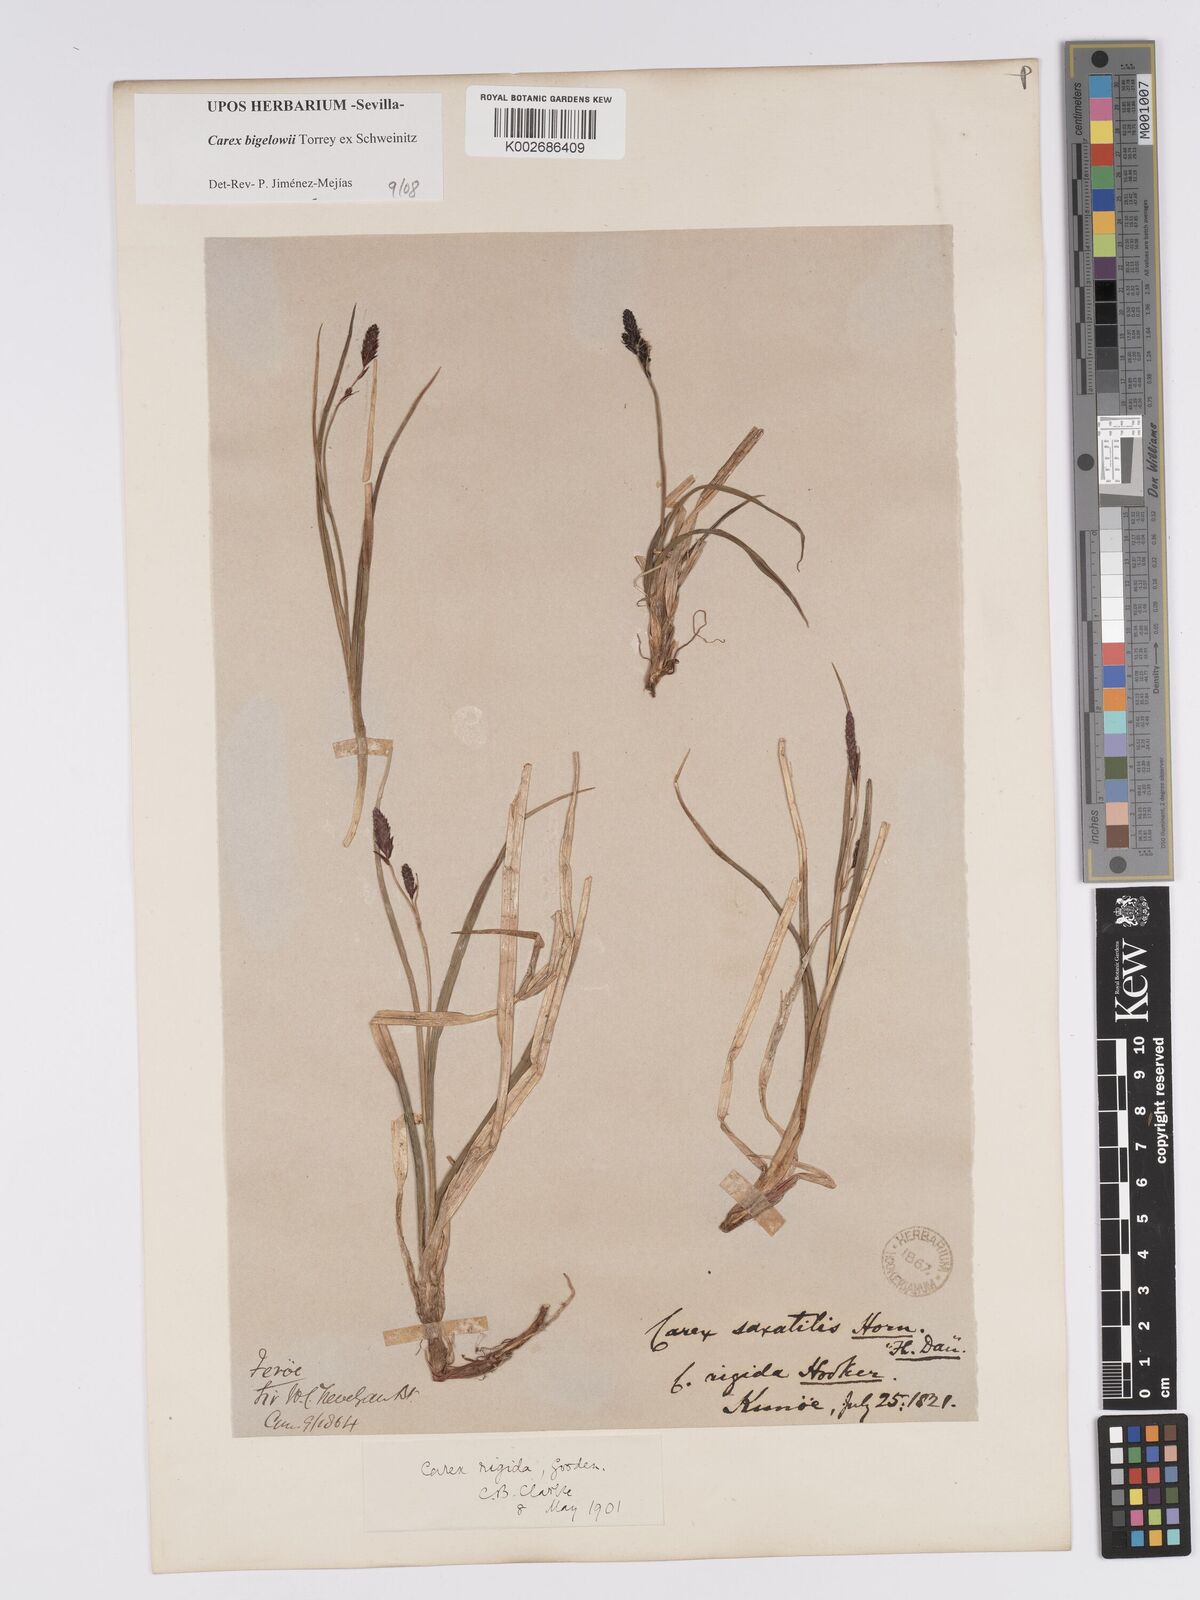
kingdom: Plantae
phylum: Tracheophyta
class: Liliopsida
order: Poales
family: Cyperaceae
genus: Carex
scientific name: Carex bigelowii
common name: Stiff sedge
